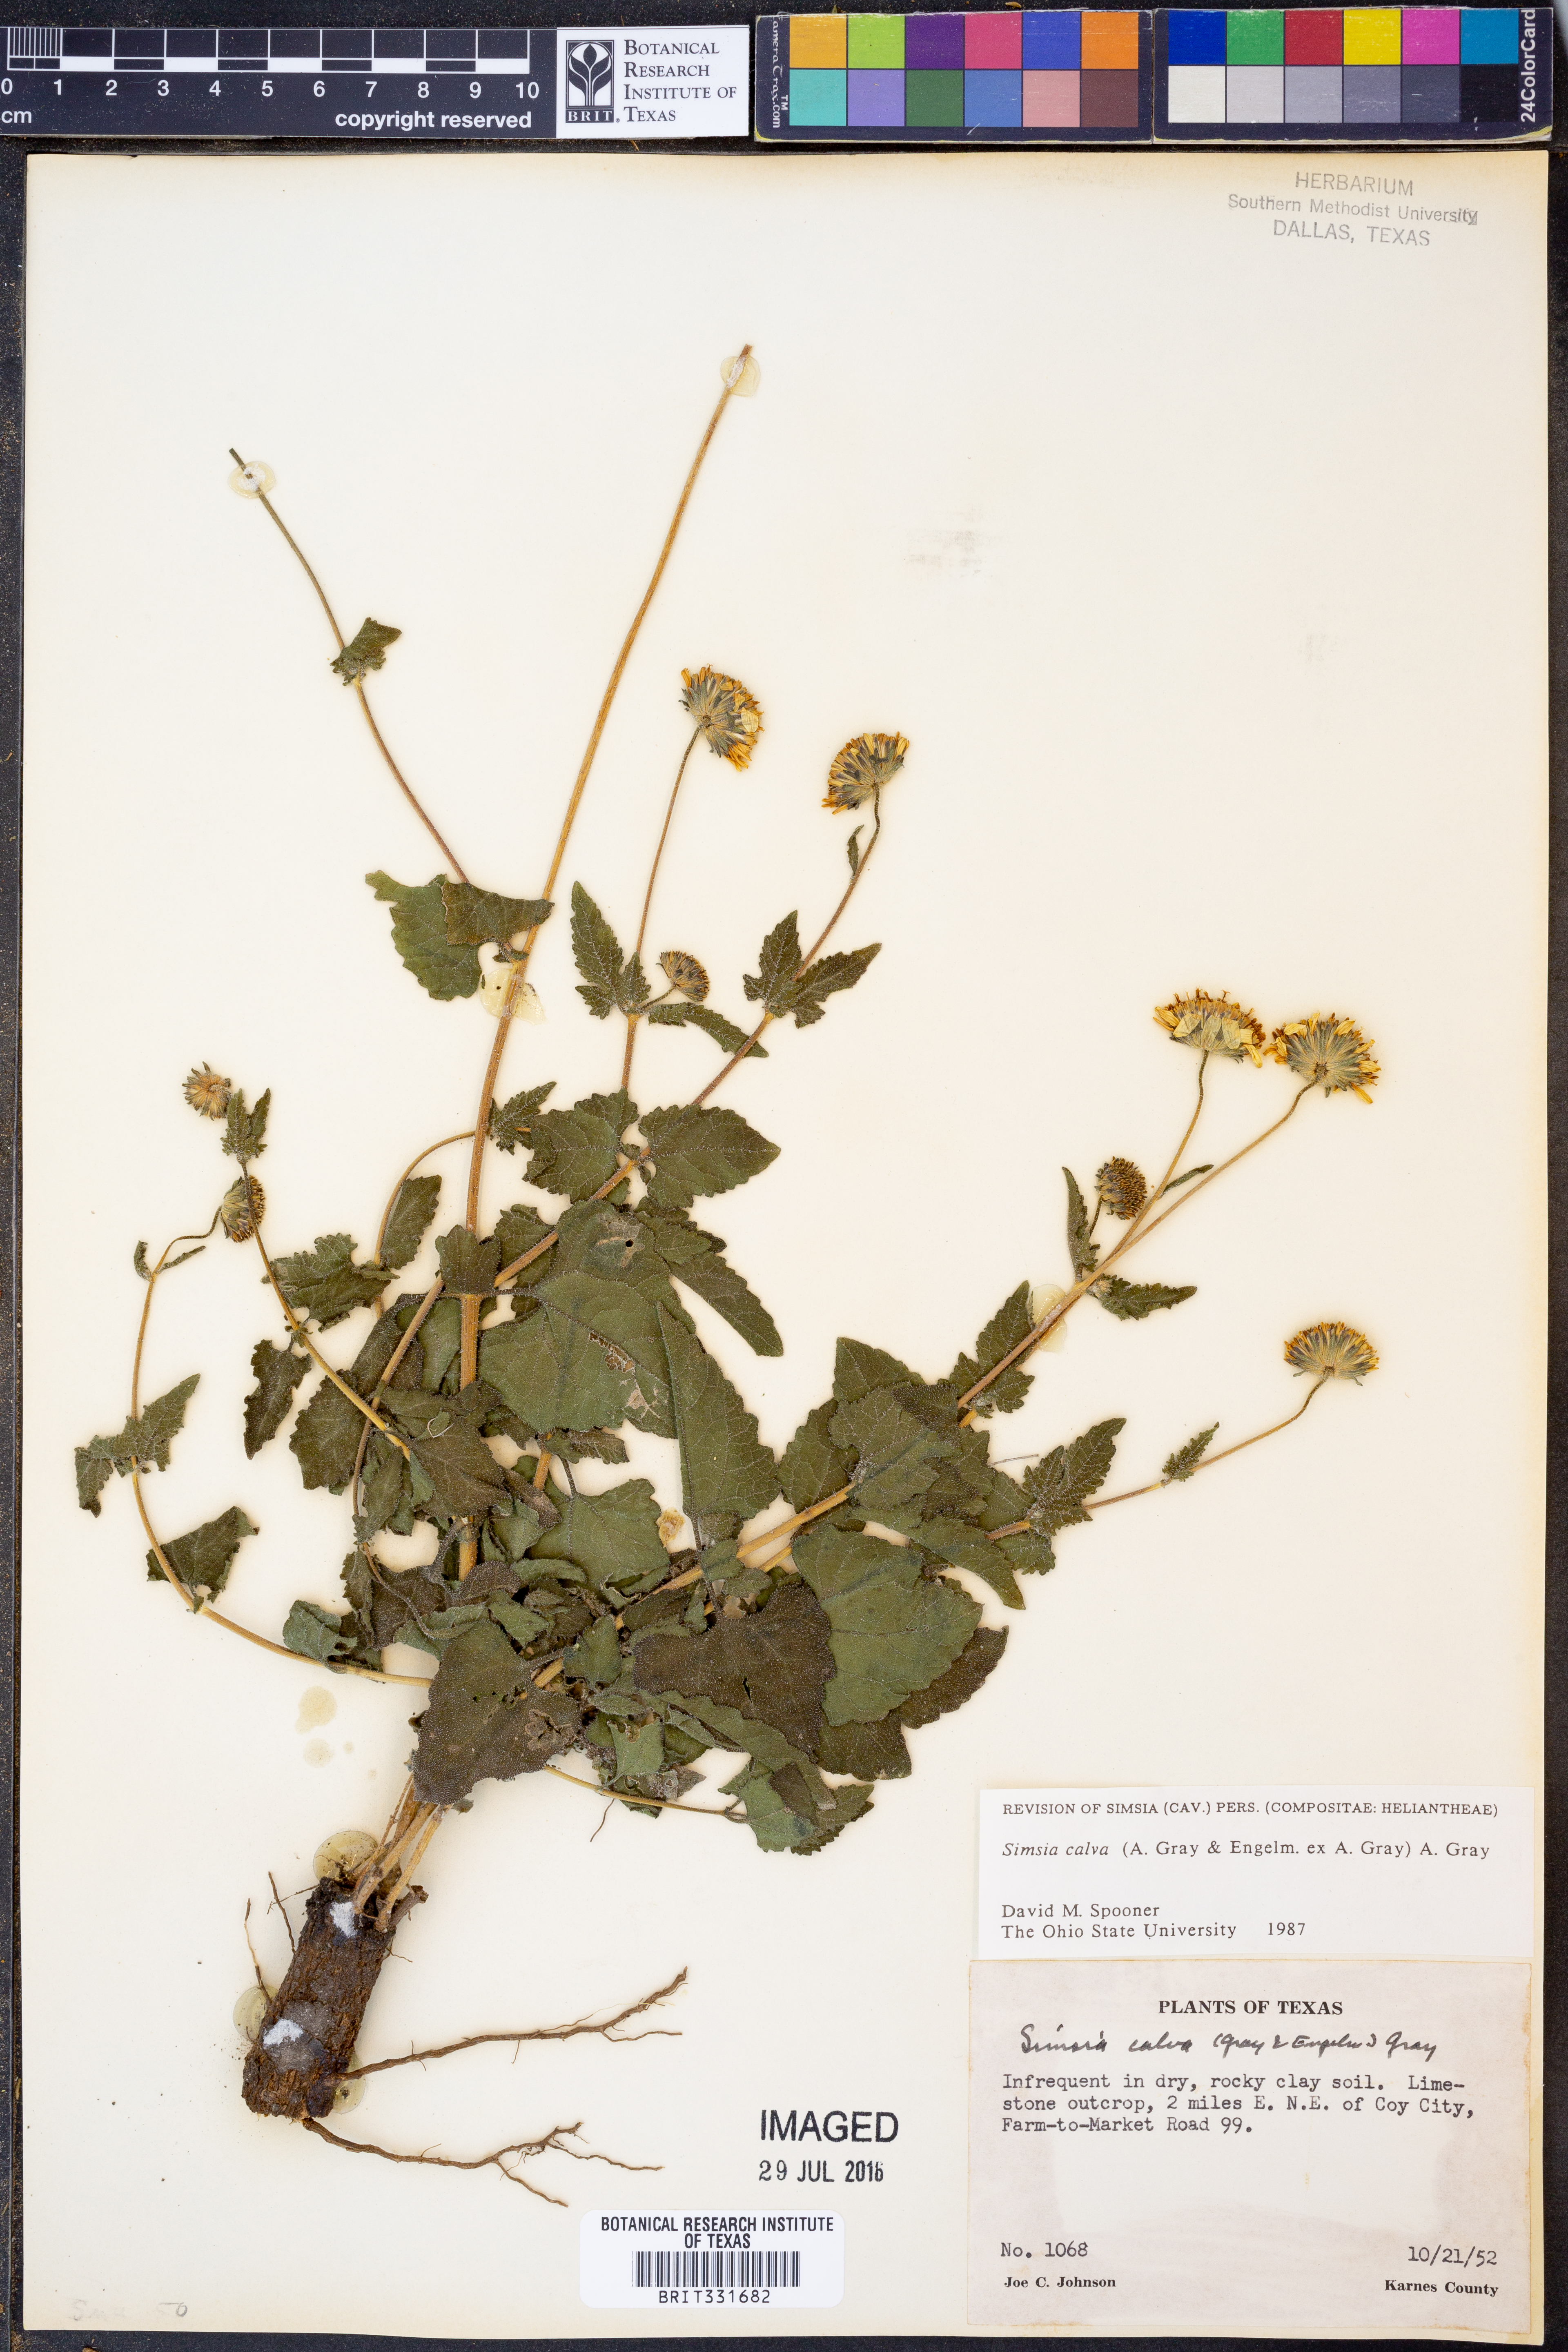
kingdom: Plantae
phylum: Tracheophyta
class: Magnoliopsida
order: Asterales
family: Asteraceae
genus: Simsia
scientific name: Simsia calva
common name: Awnless bush-sunflower
